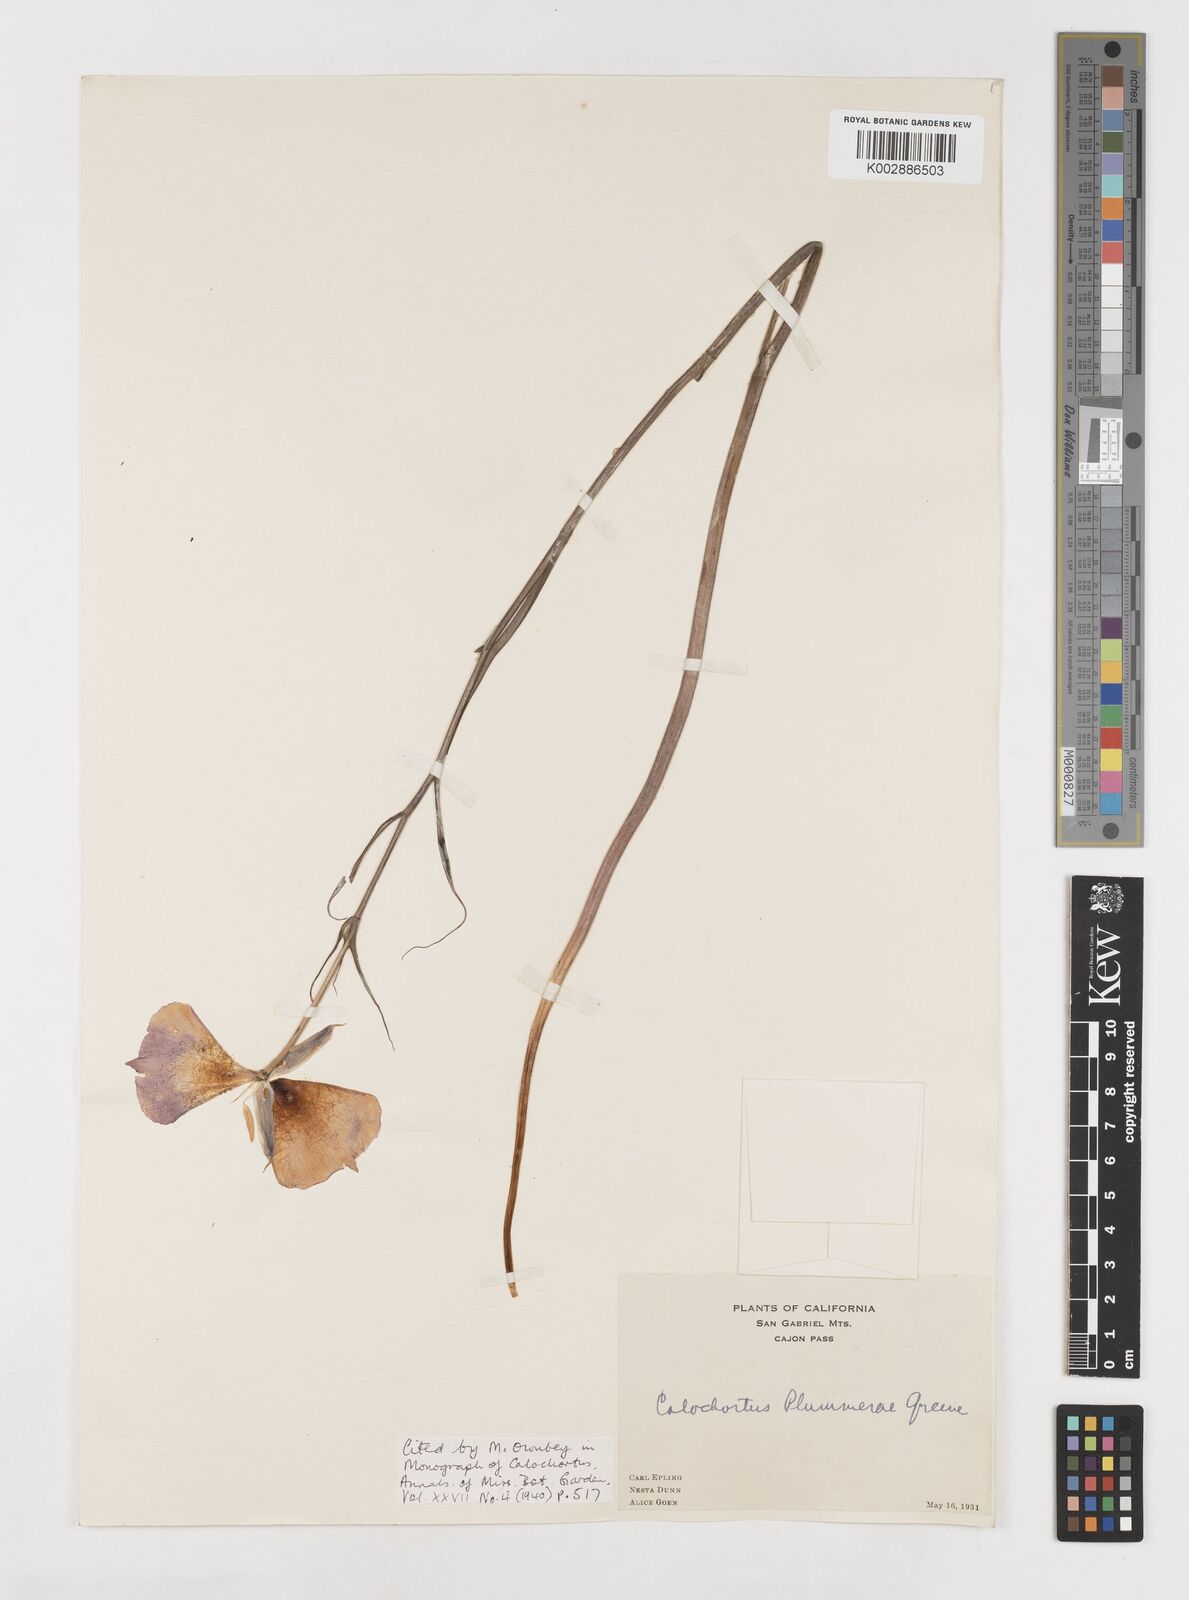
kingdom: Plantae
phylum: Tracheophyta
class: Liliopsida
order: Liliales
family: Liliaceae
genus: Calochortus
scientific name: Calochortus plummerae
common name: Plummer's mariposa-lily
